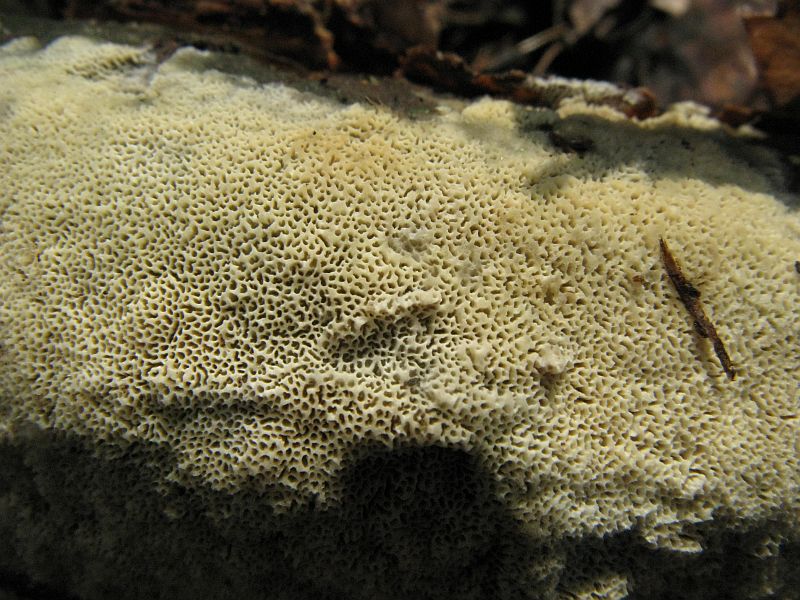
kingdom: Fungi
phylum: Basidiomycota
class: Agaricomycetes
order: Hymenochaetales
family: Schizoporaceae
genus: Xylodon
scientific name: Xylodon subtropicus
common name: labyrint-tandsvamp
